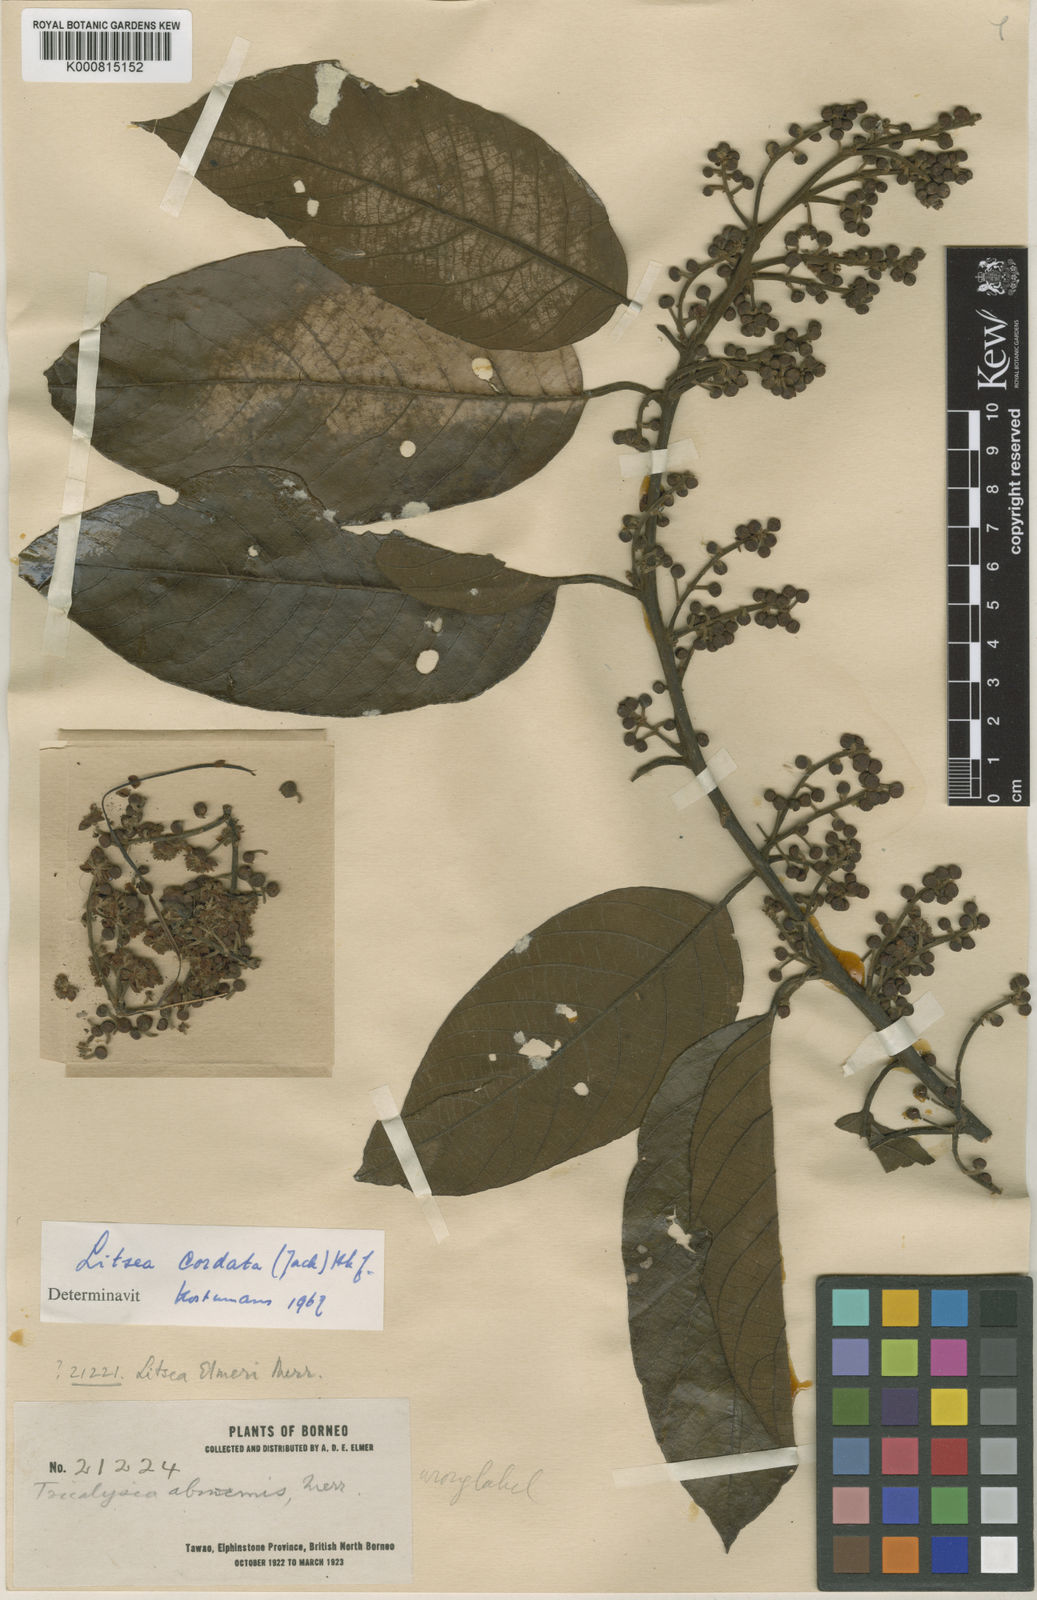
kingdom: Plantae
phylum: Tracheophyta
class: Magnoliopsida
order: Laurales
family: Lauraceae
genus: Litsea
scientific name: Litsea cordata
